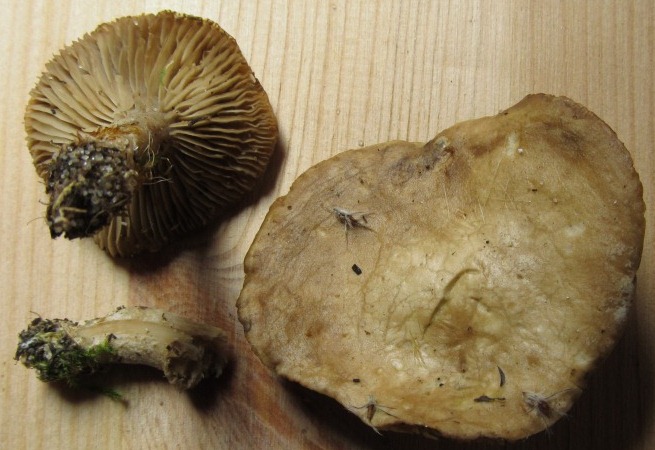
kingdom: Fungi
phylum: Basidiomycota
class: Agaricomycetes
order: Agaricales
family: Tricholomataceae
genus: Lulesia
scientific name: Lulesia
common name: sortnende troldhat
